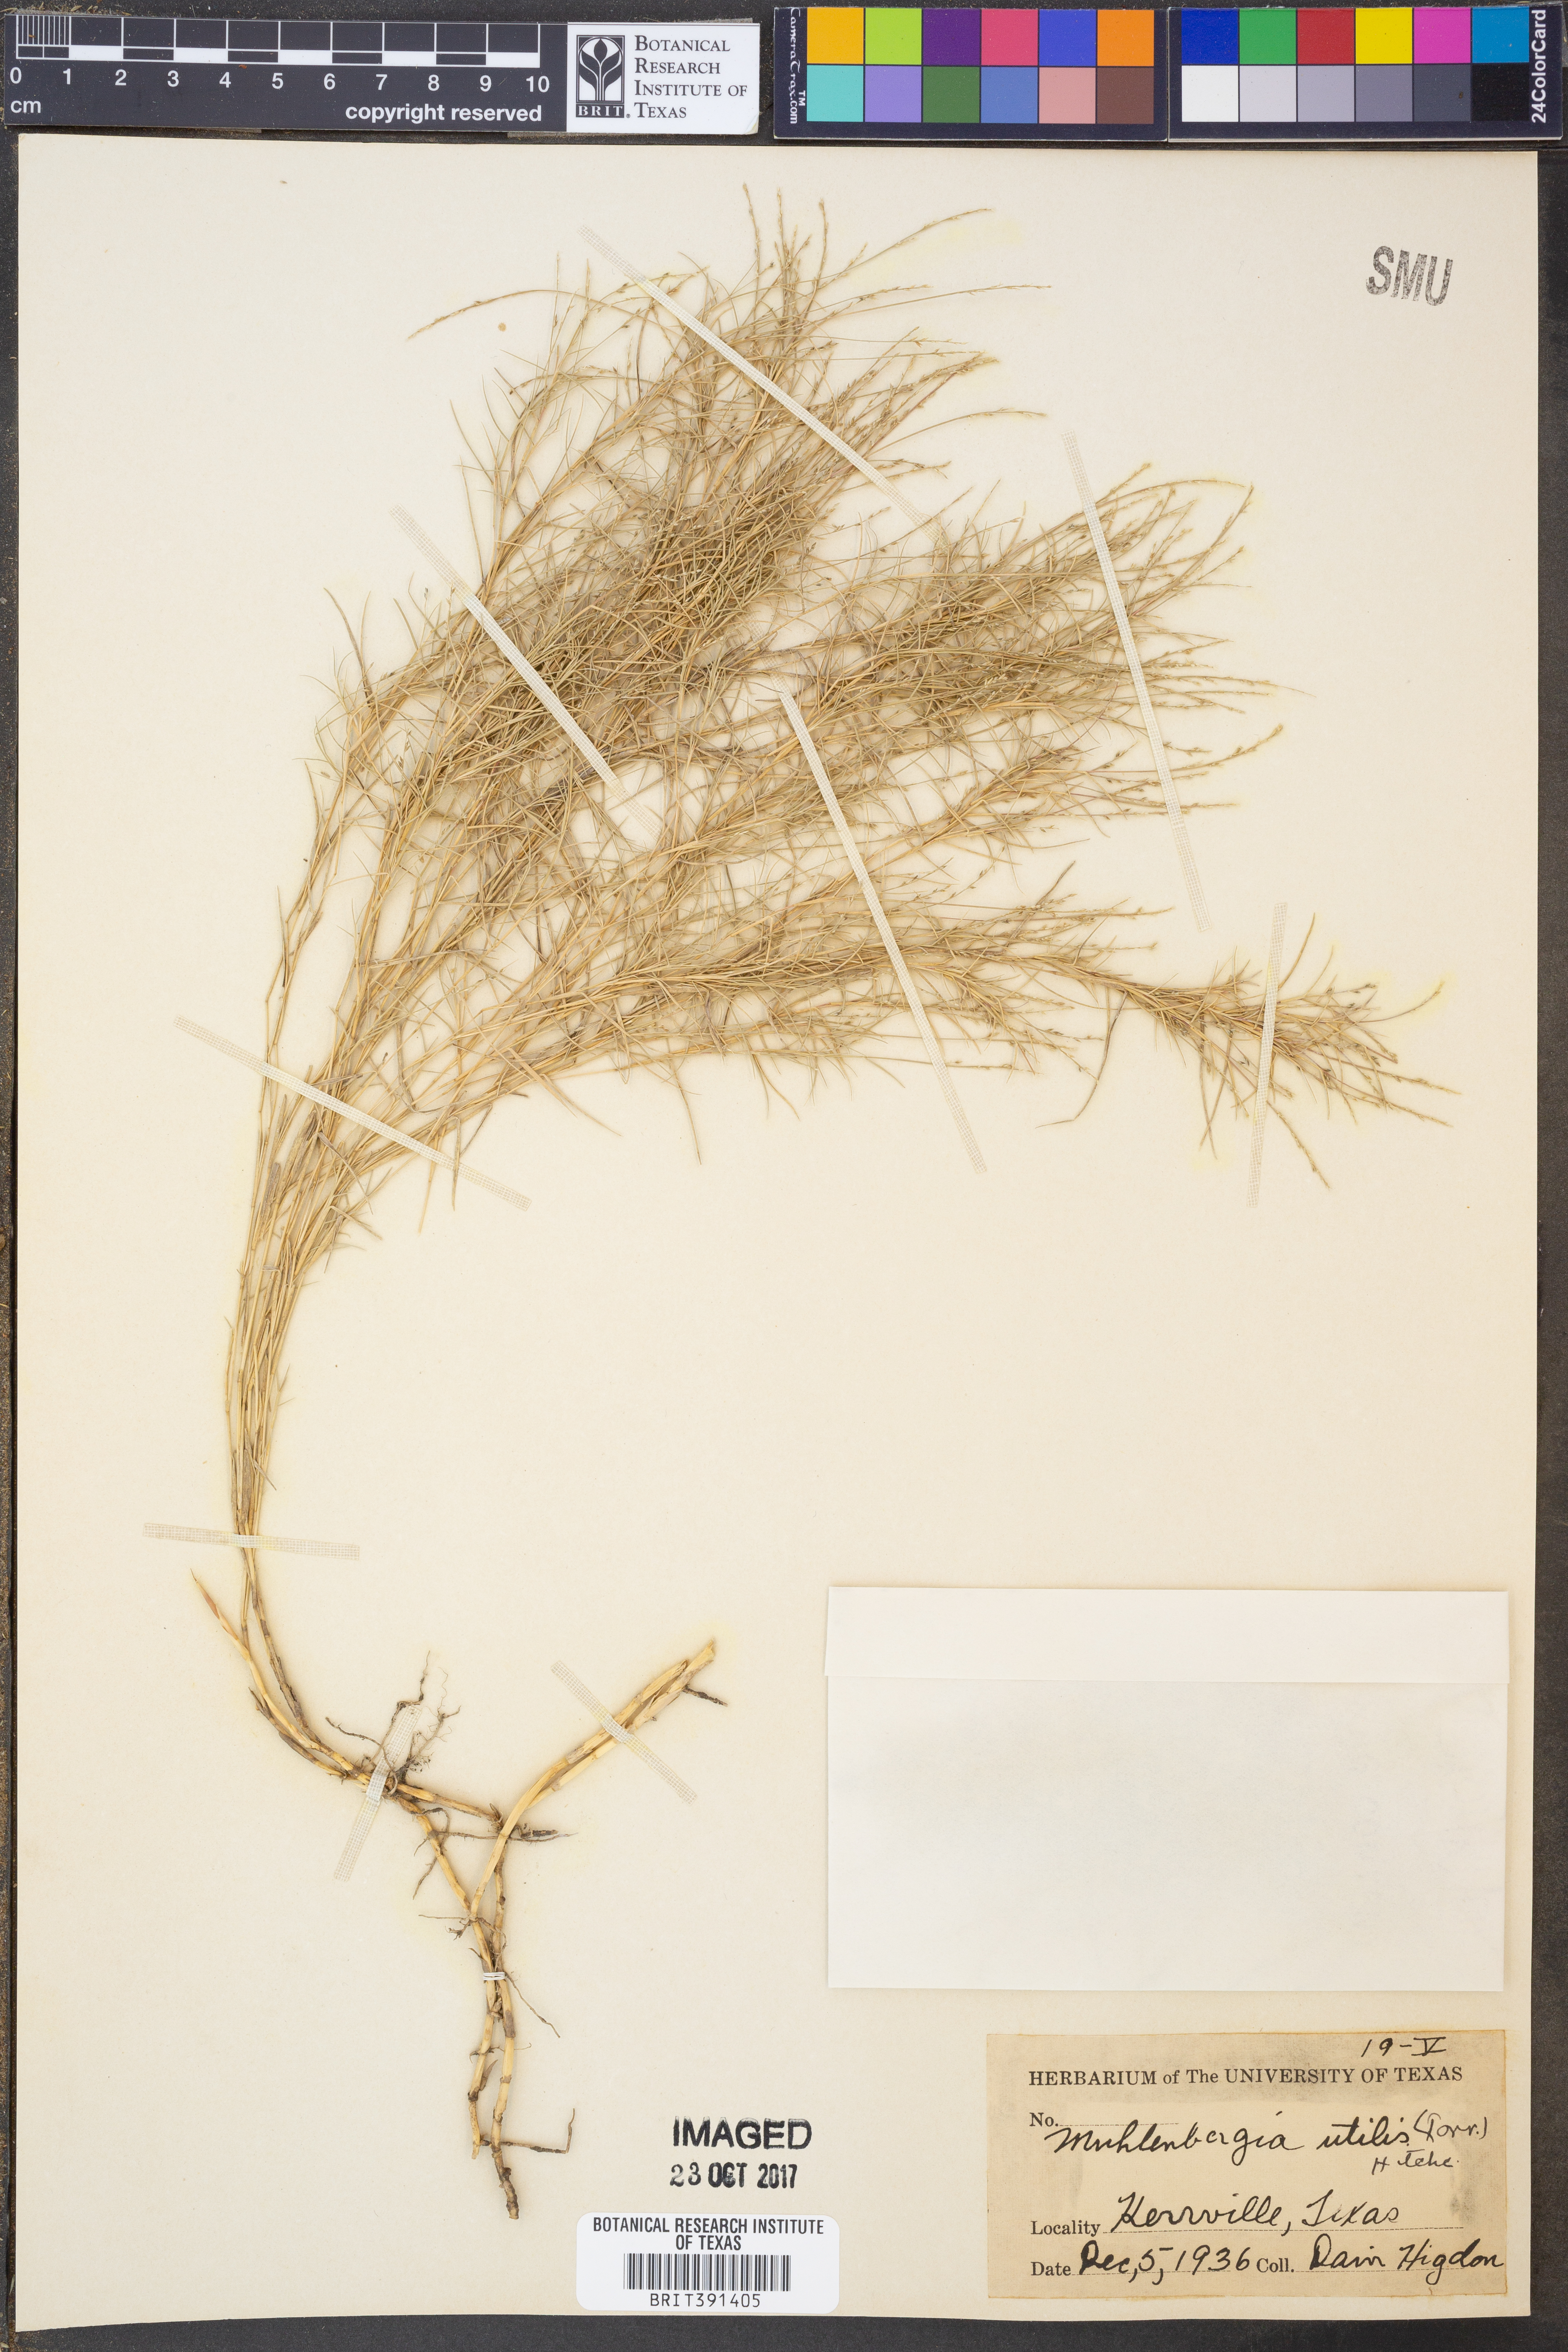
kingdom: Plantae
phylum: Tracheophyta
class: Liliopsida
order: Poales
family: Poaceae
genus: Muhlenbergia
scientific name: Muhlenbergia utilis
